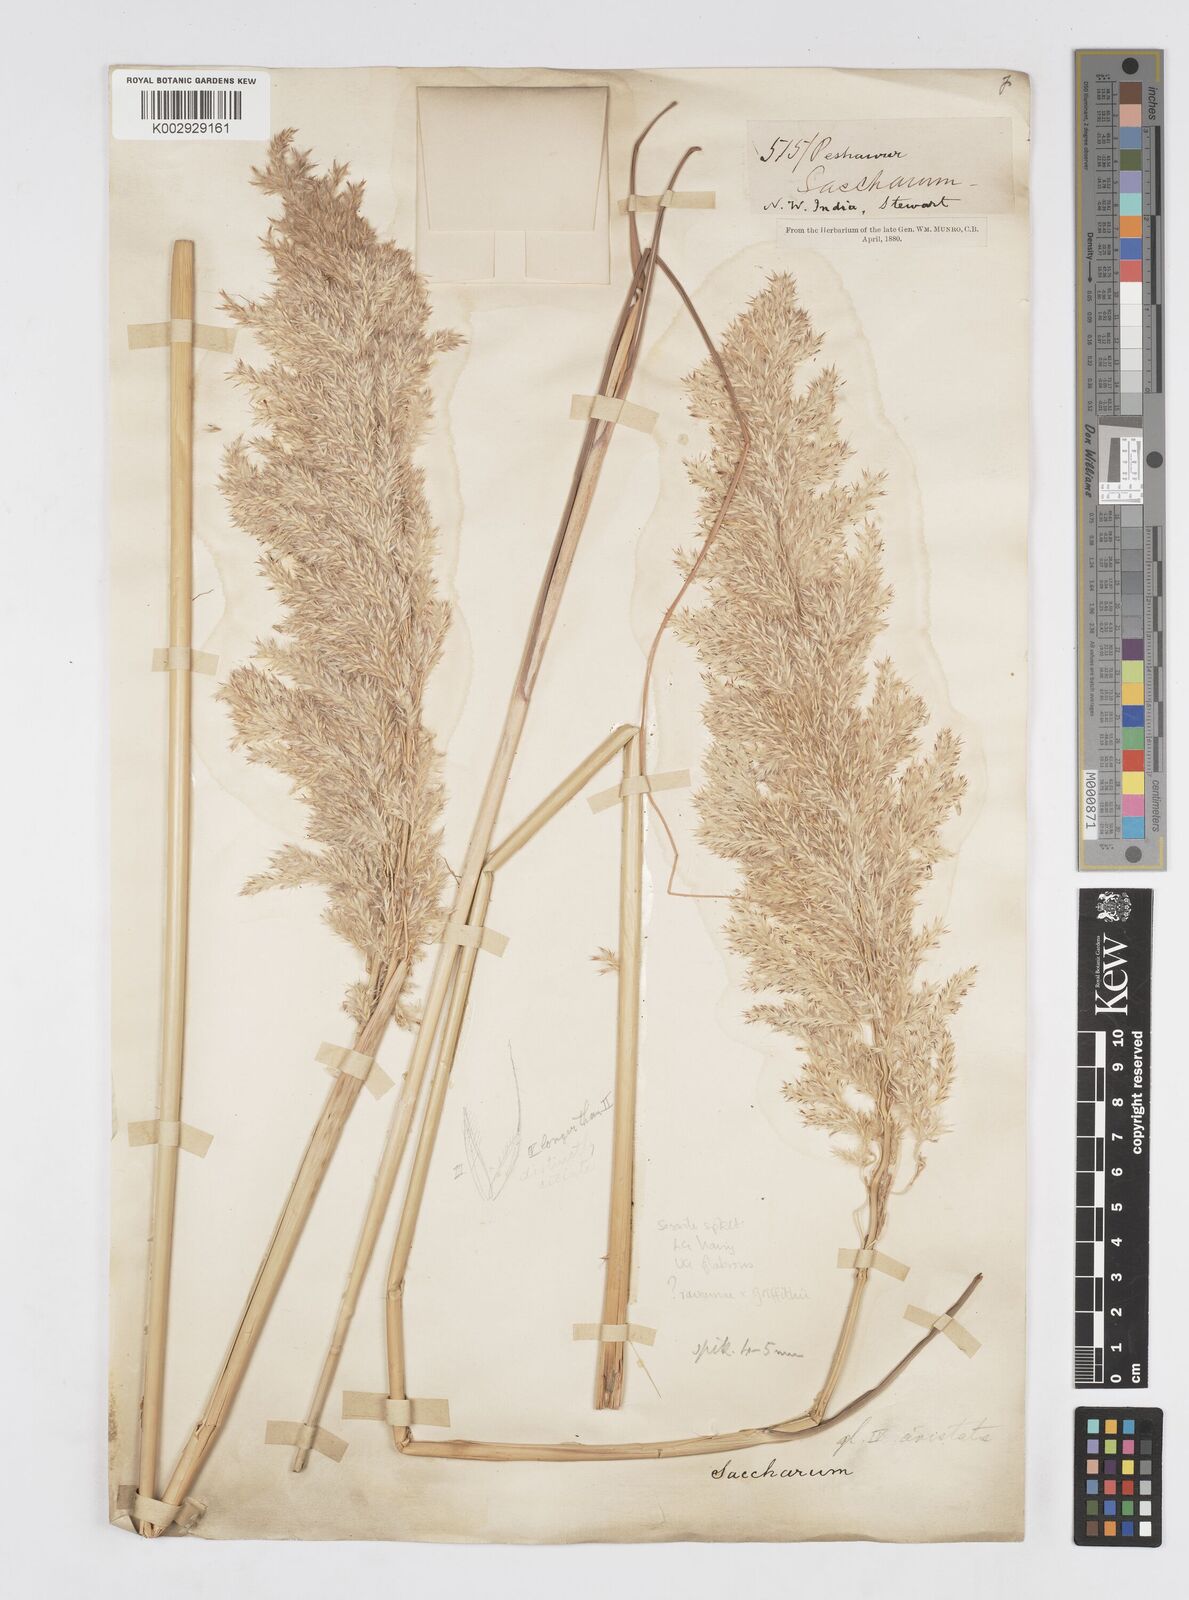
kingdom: Plantae
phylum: Tracheophyta
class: Liliopsida
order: Poales
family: Poaceae
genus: Saccharum
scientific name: Saccharum griffithii
